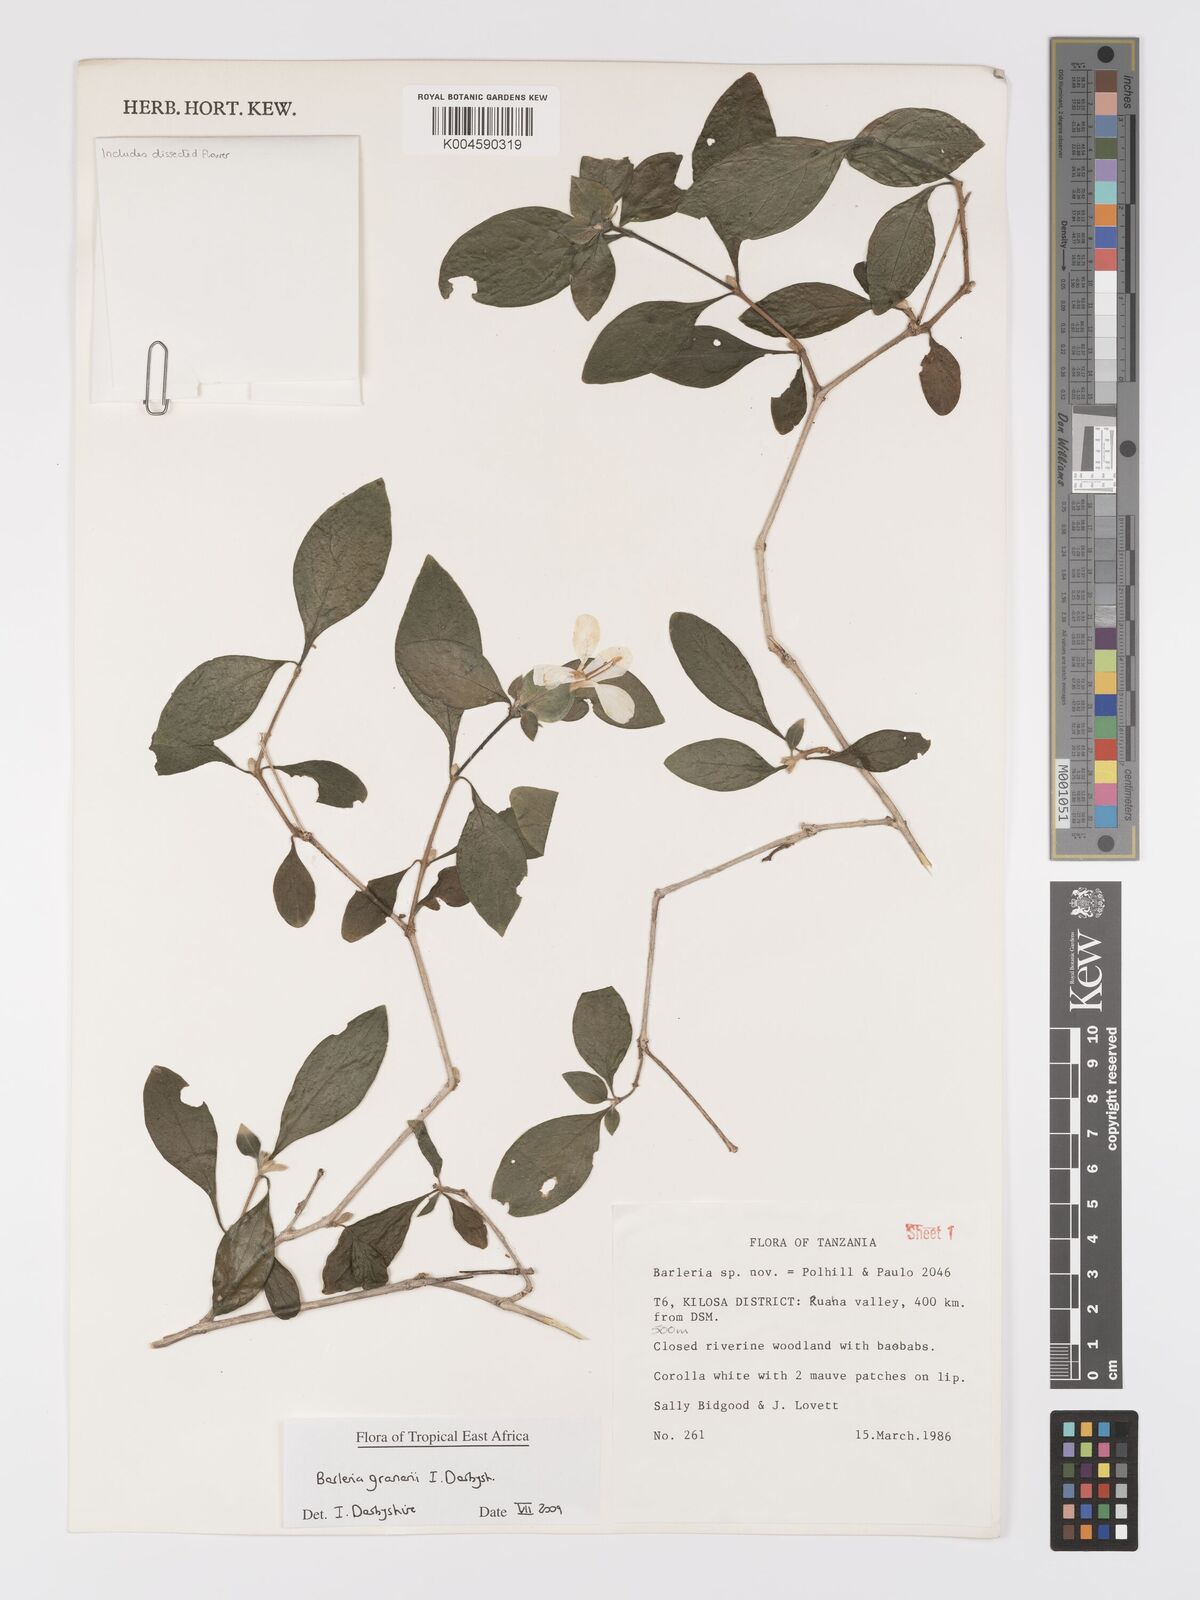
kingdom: Plantae
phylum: Tracheophyta
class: Magnoliopsida
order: Lamiales
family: Acanthaceae
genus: Barleria
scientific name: Barleria granarii
